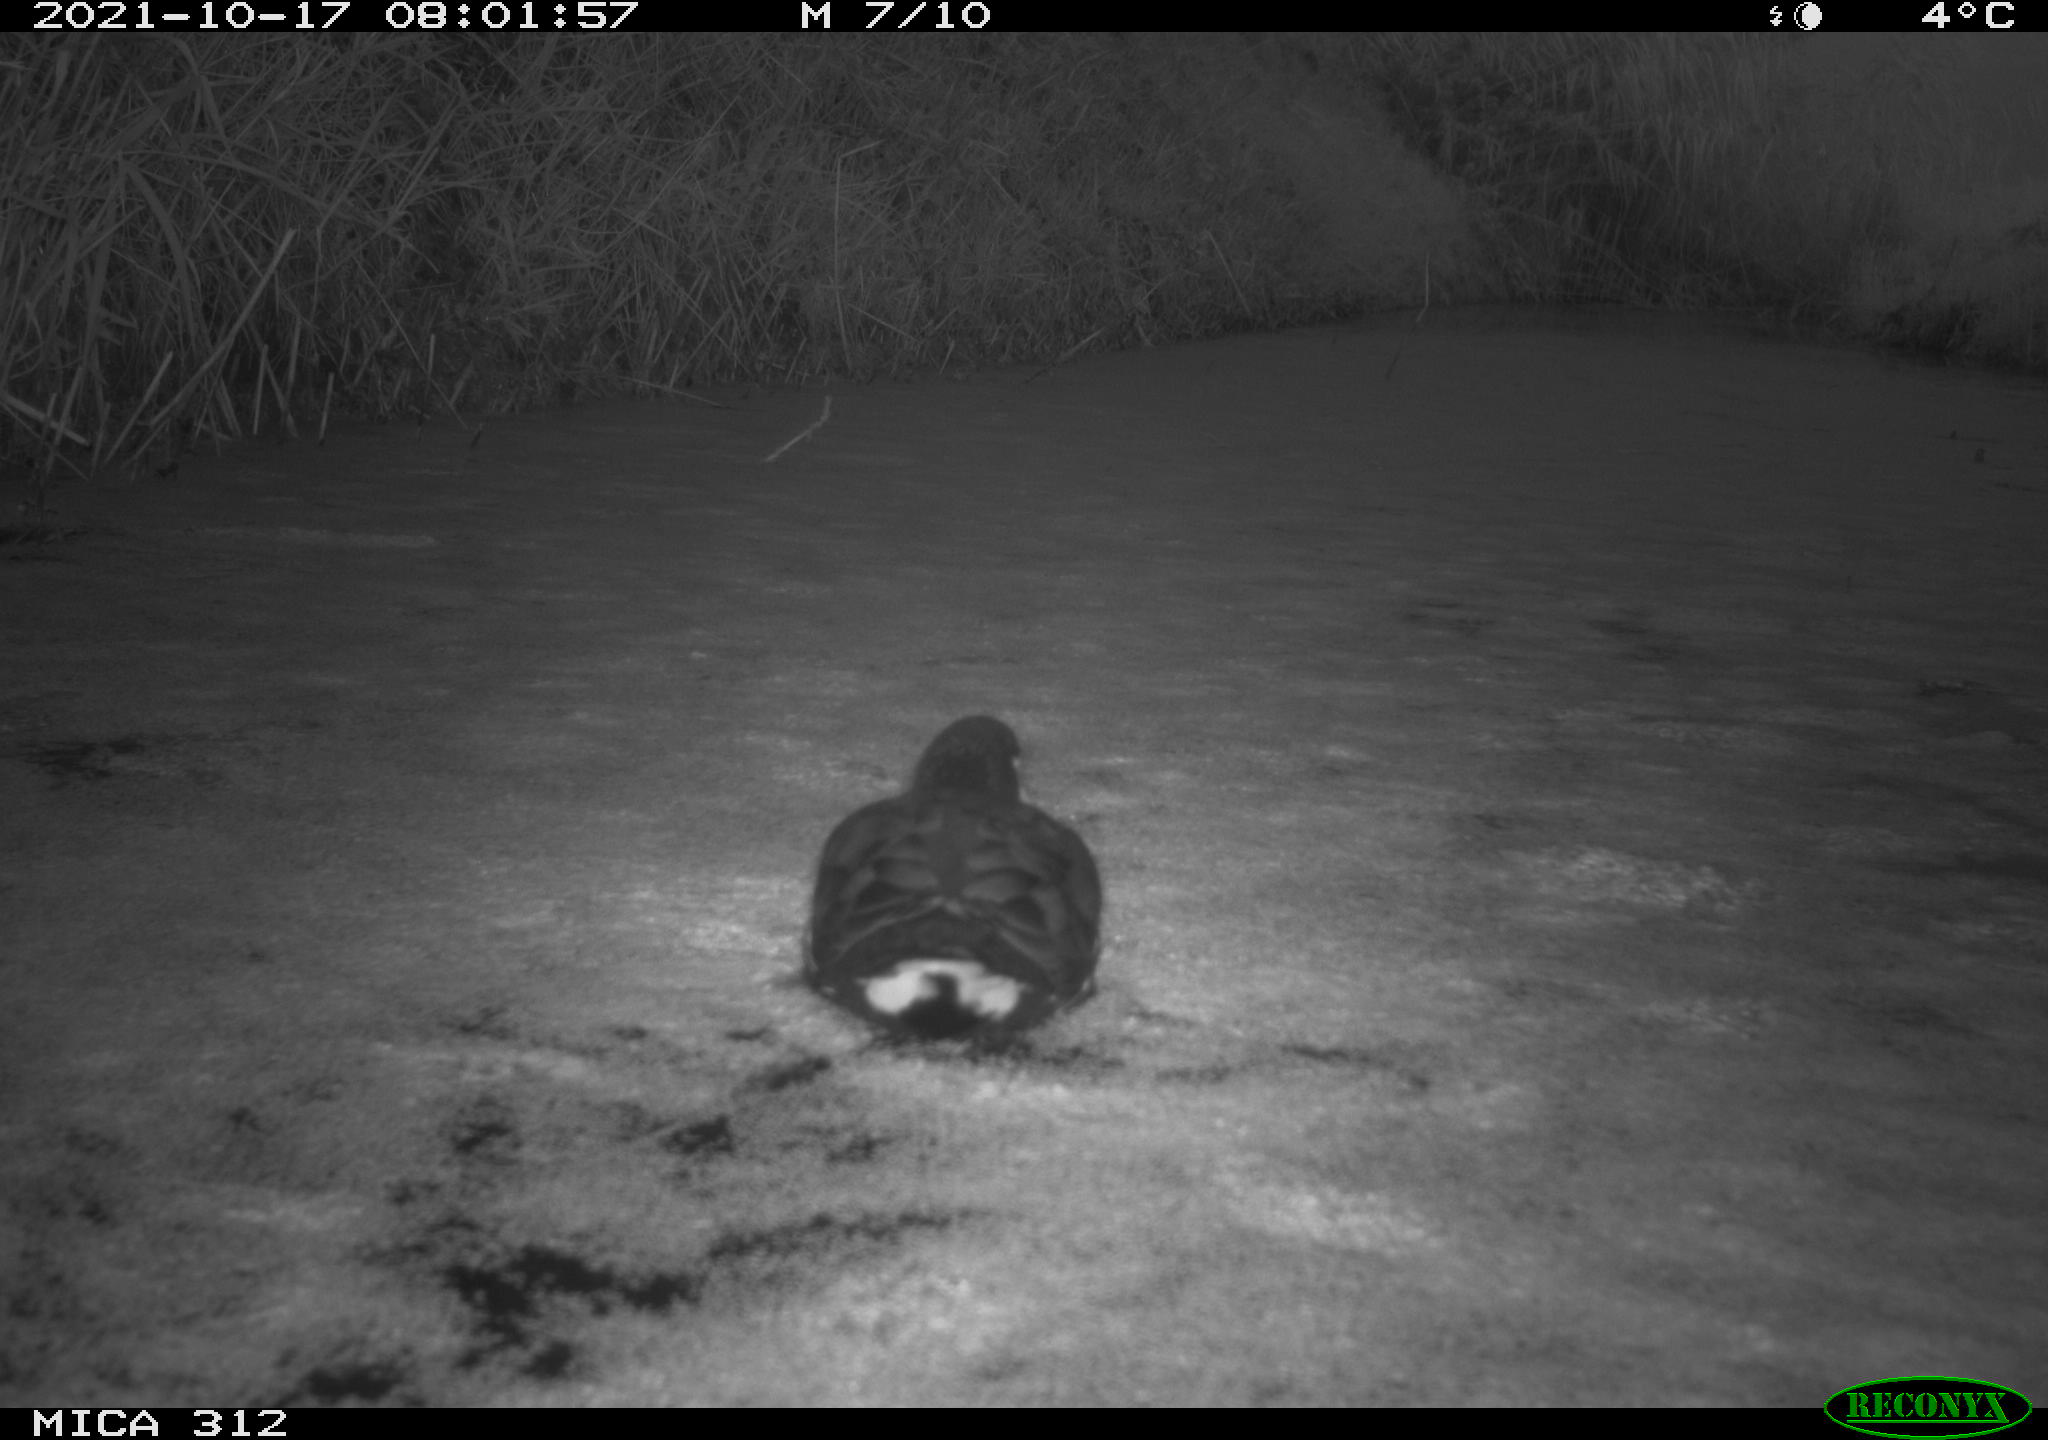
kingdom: Animalia
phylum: Chordata
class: Aves
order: Gruiformes
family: Rallidae
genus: Gallinula
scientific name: Gallinula chloropus
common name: Common moorhen
